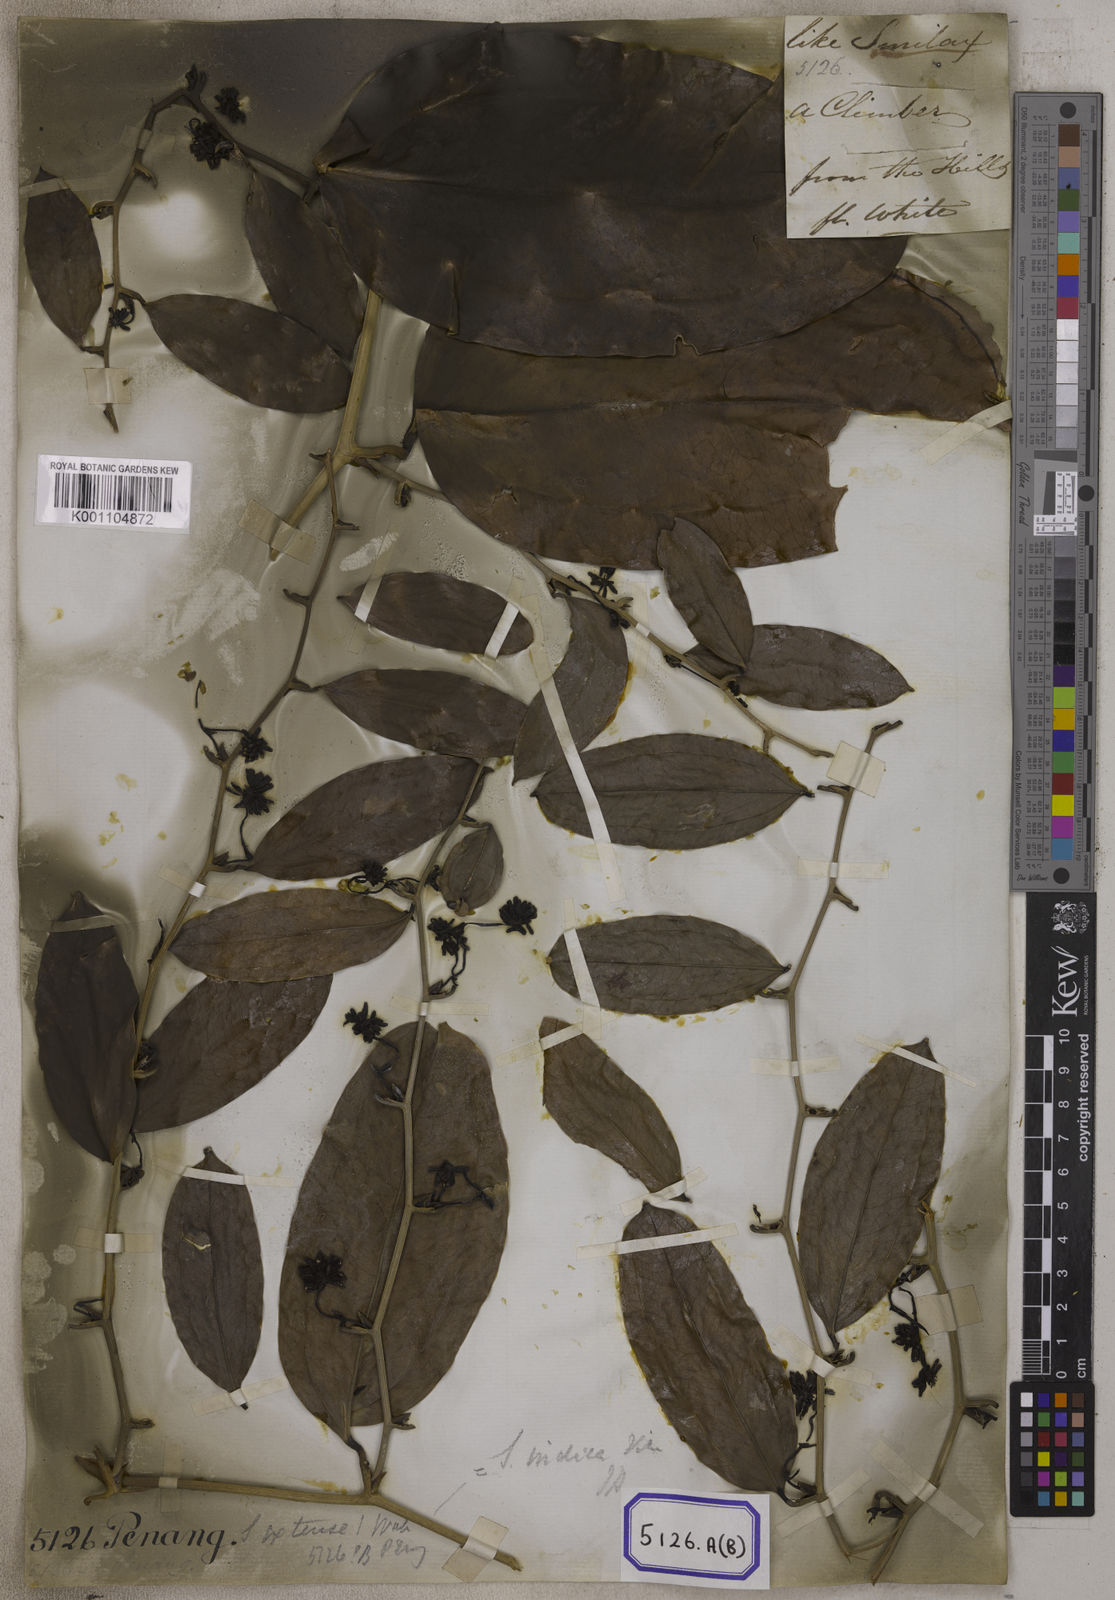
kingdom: Plantae
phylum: Tracheophyta
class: Liliopsida
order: Liliales
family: Smilacaceae
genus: Smilax
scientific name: Smilax
